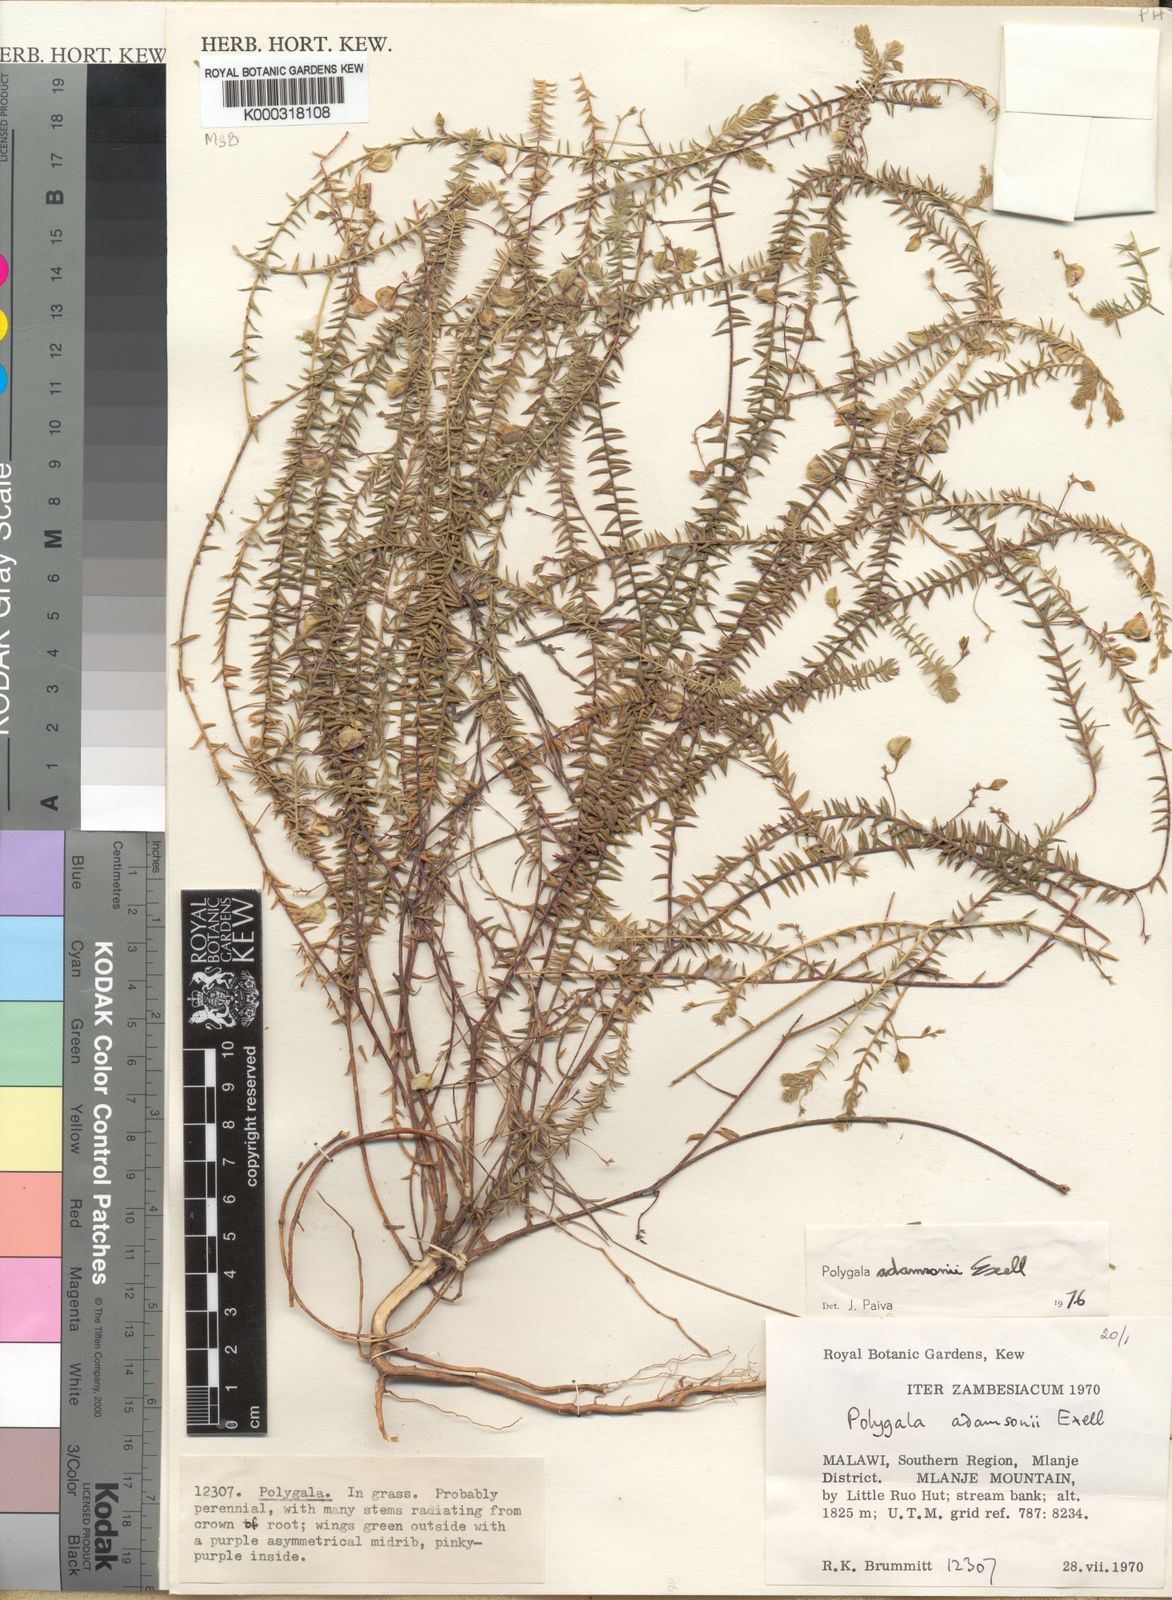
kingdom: Plantae
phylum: Tracheophyta
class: Magnoliopsida
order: Fabales
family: Polygalaceae
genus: Polygala
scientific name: Polygala adamsonii
